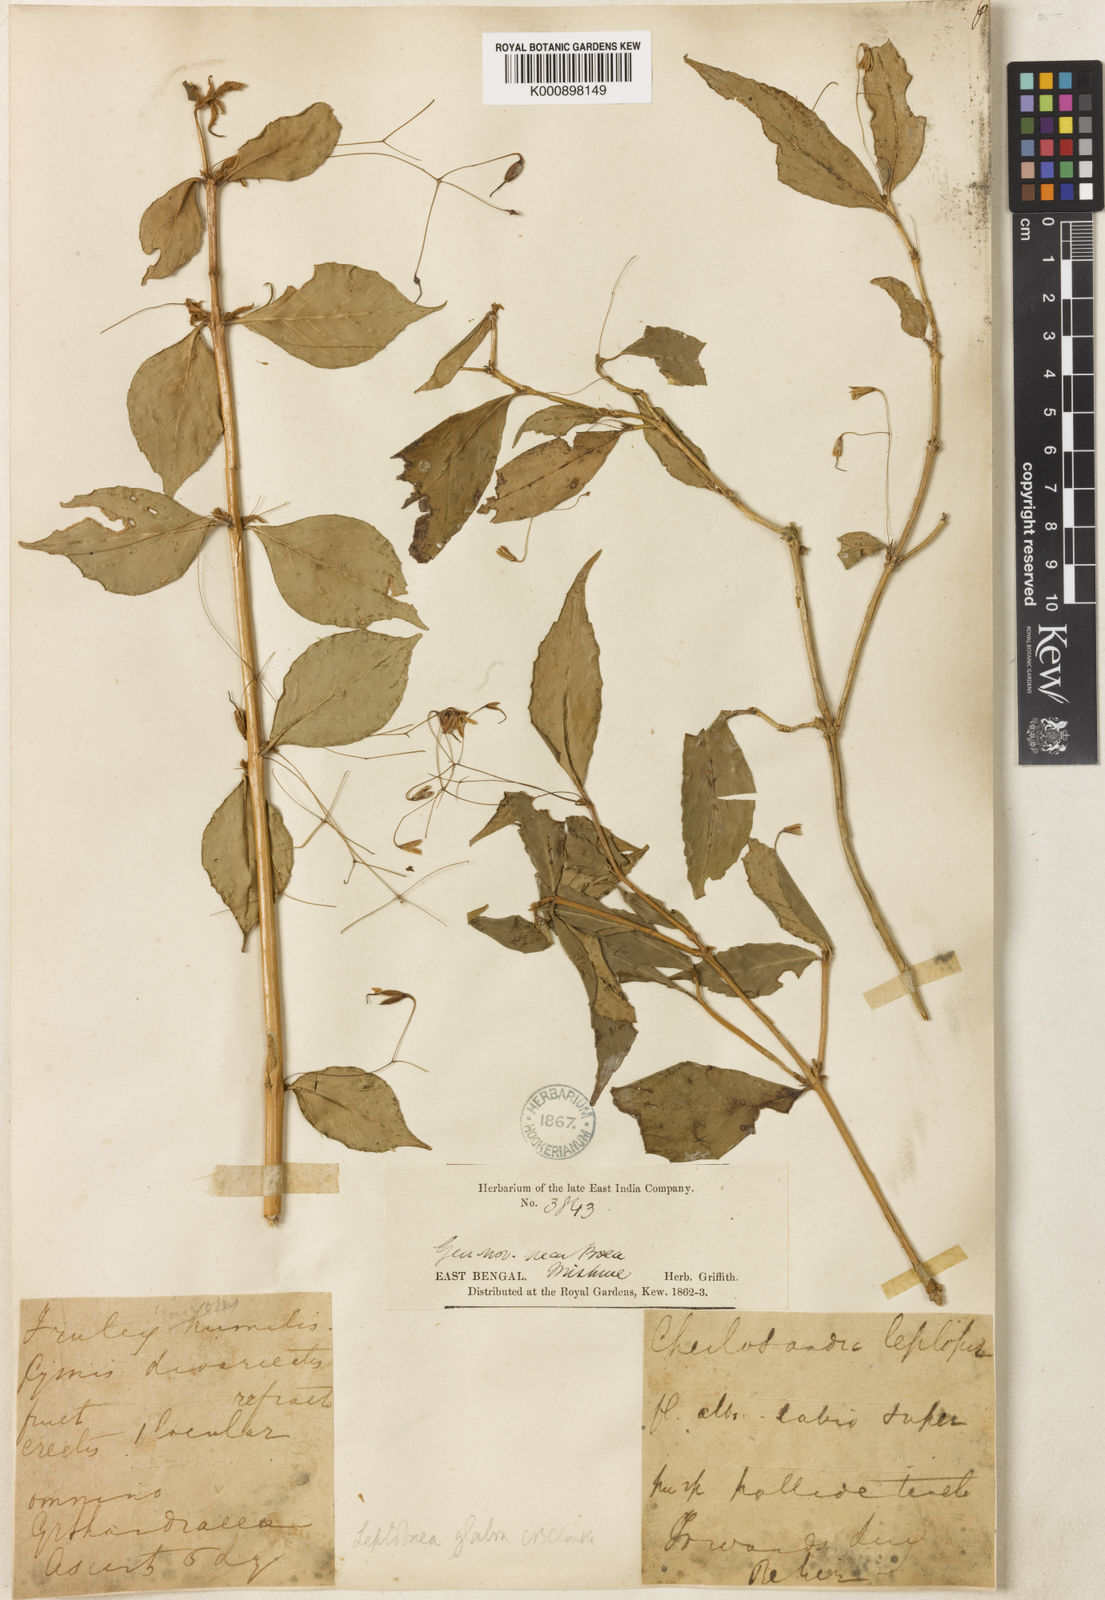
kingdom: Plantae
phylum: Tracheophyta
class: Magnoliopsida
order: Lamiales
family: Gesneriaceae
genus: Leptoboea
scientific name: Leptoboea glabra
